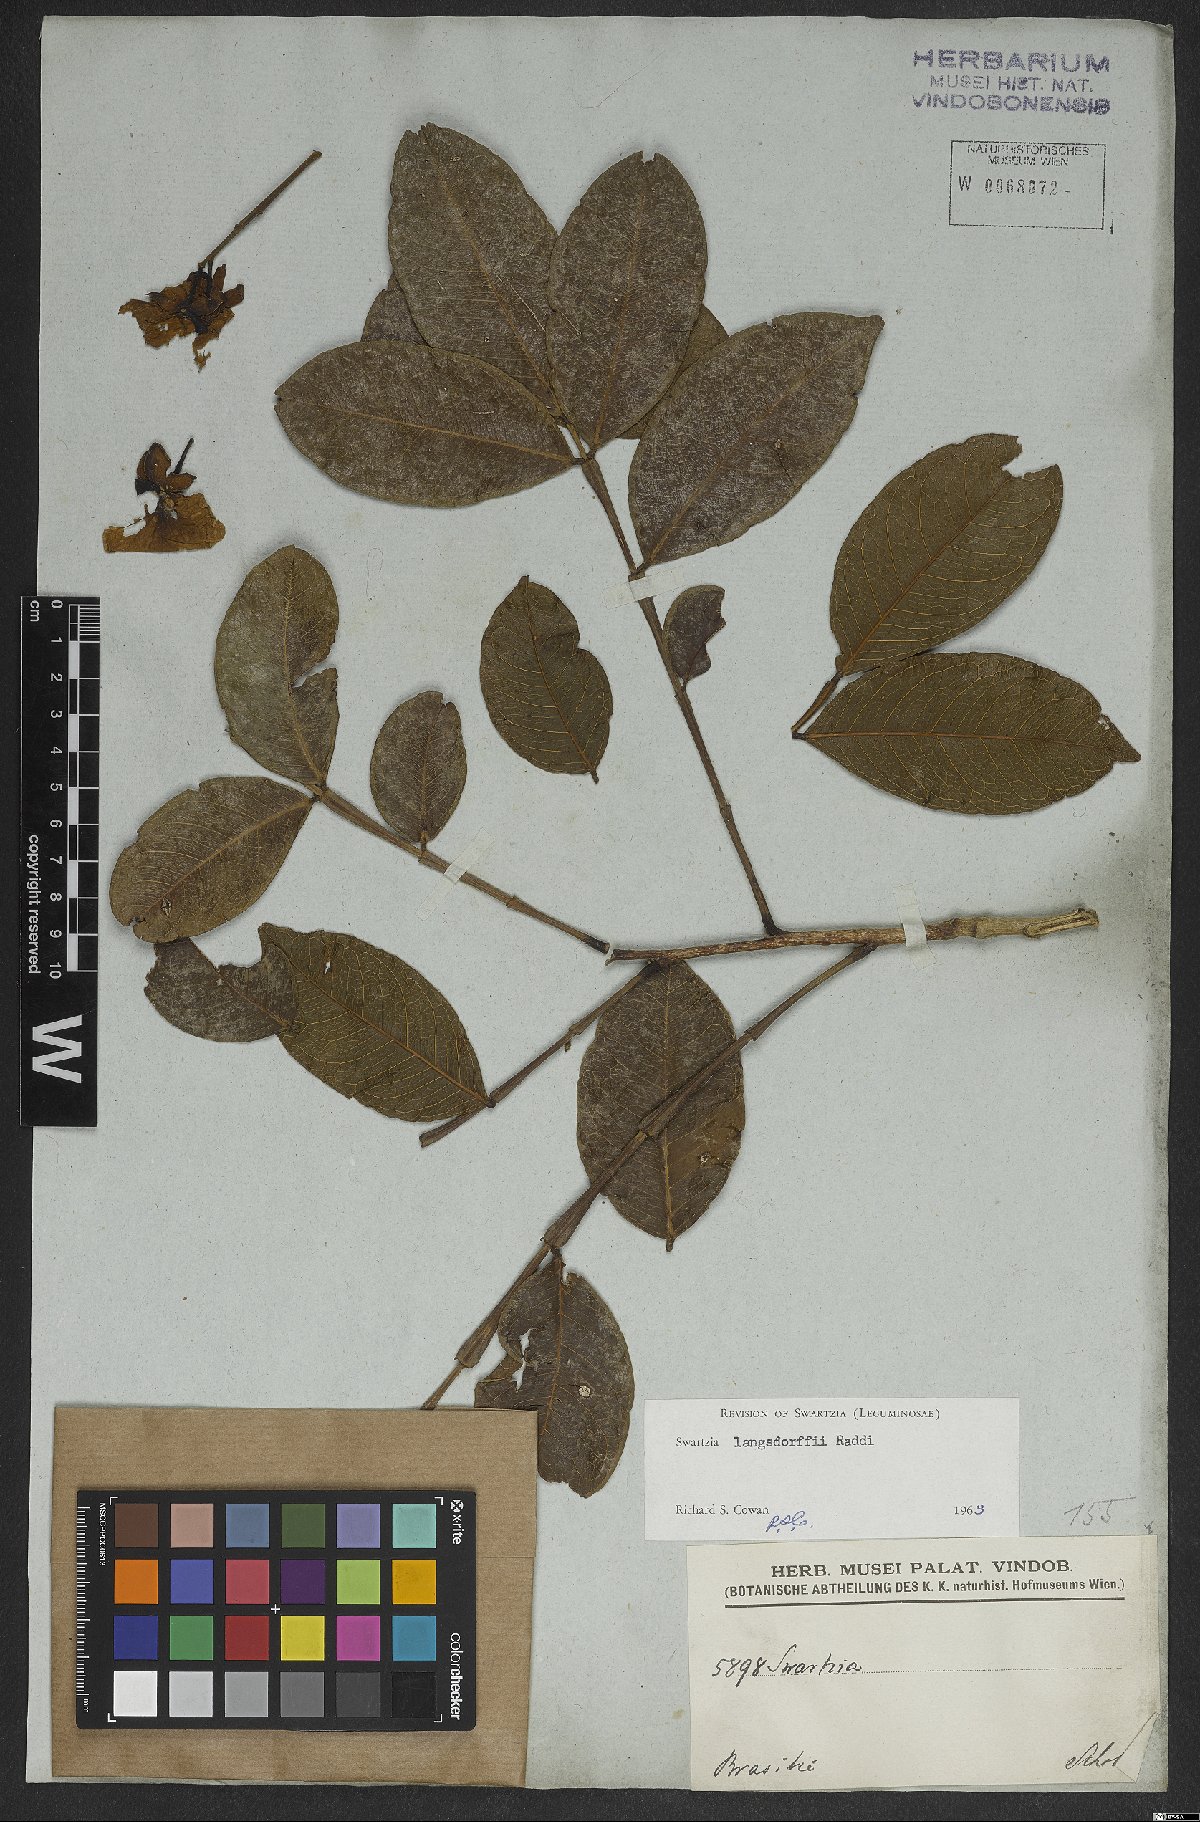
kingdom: Plantae
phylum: Tracheophyta
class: Magnoliopsida
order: Fabales
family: Fabaceae
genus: Swartzia
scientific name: Swartzia langsdorffii
